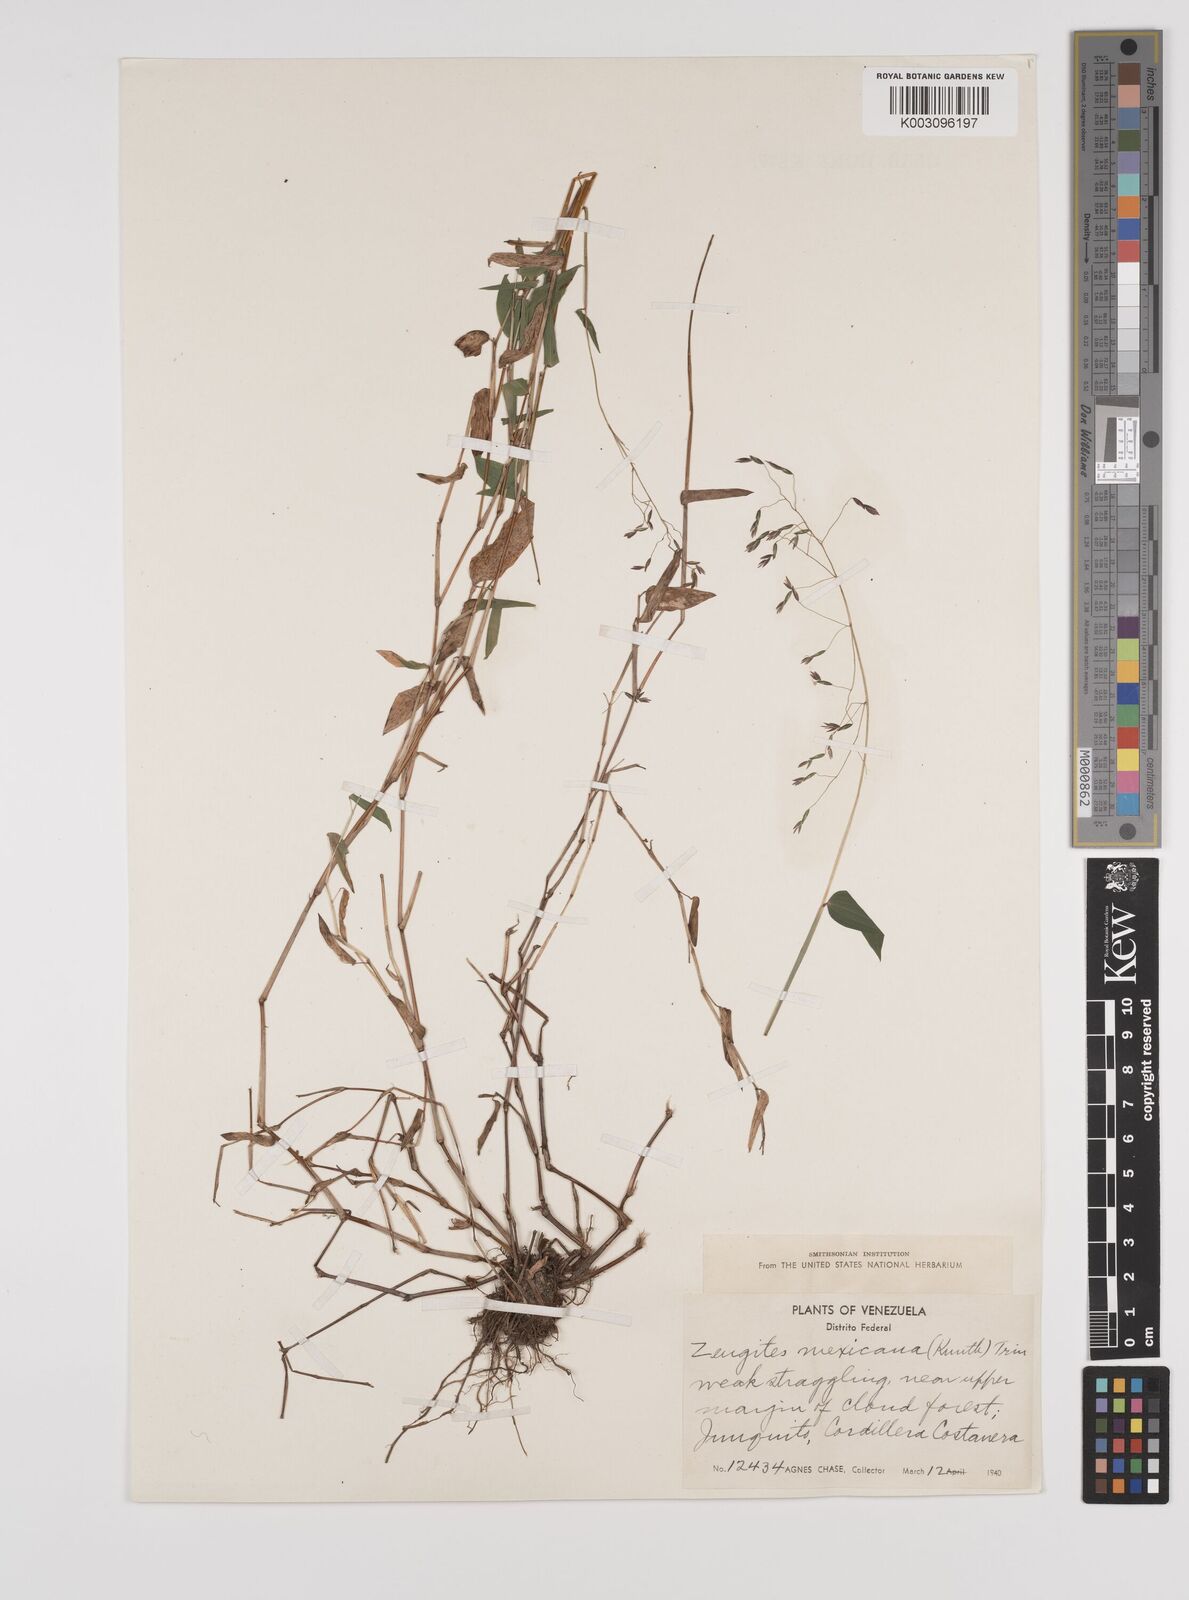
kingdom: Plantae
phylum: Tracheophyta
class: Liliopsida
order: Poales
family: Poaceae
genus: Zeugites
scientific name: Zeugites americanus
